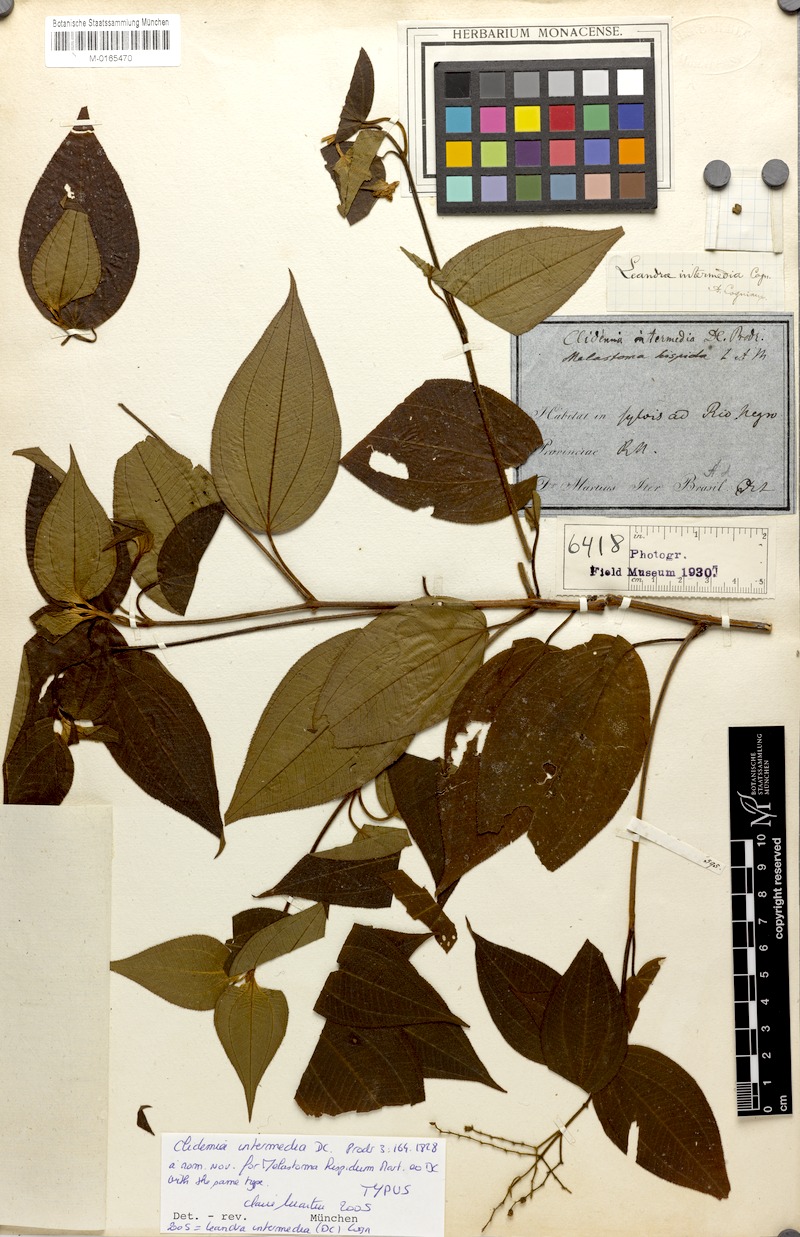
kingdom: Plantae
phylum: Tracheophyta
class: Magnoliopsida
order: Myrtales
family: Melastomataceae
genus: Miconia
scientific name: Miconia intermedia
